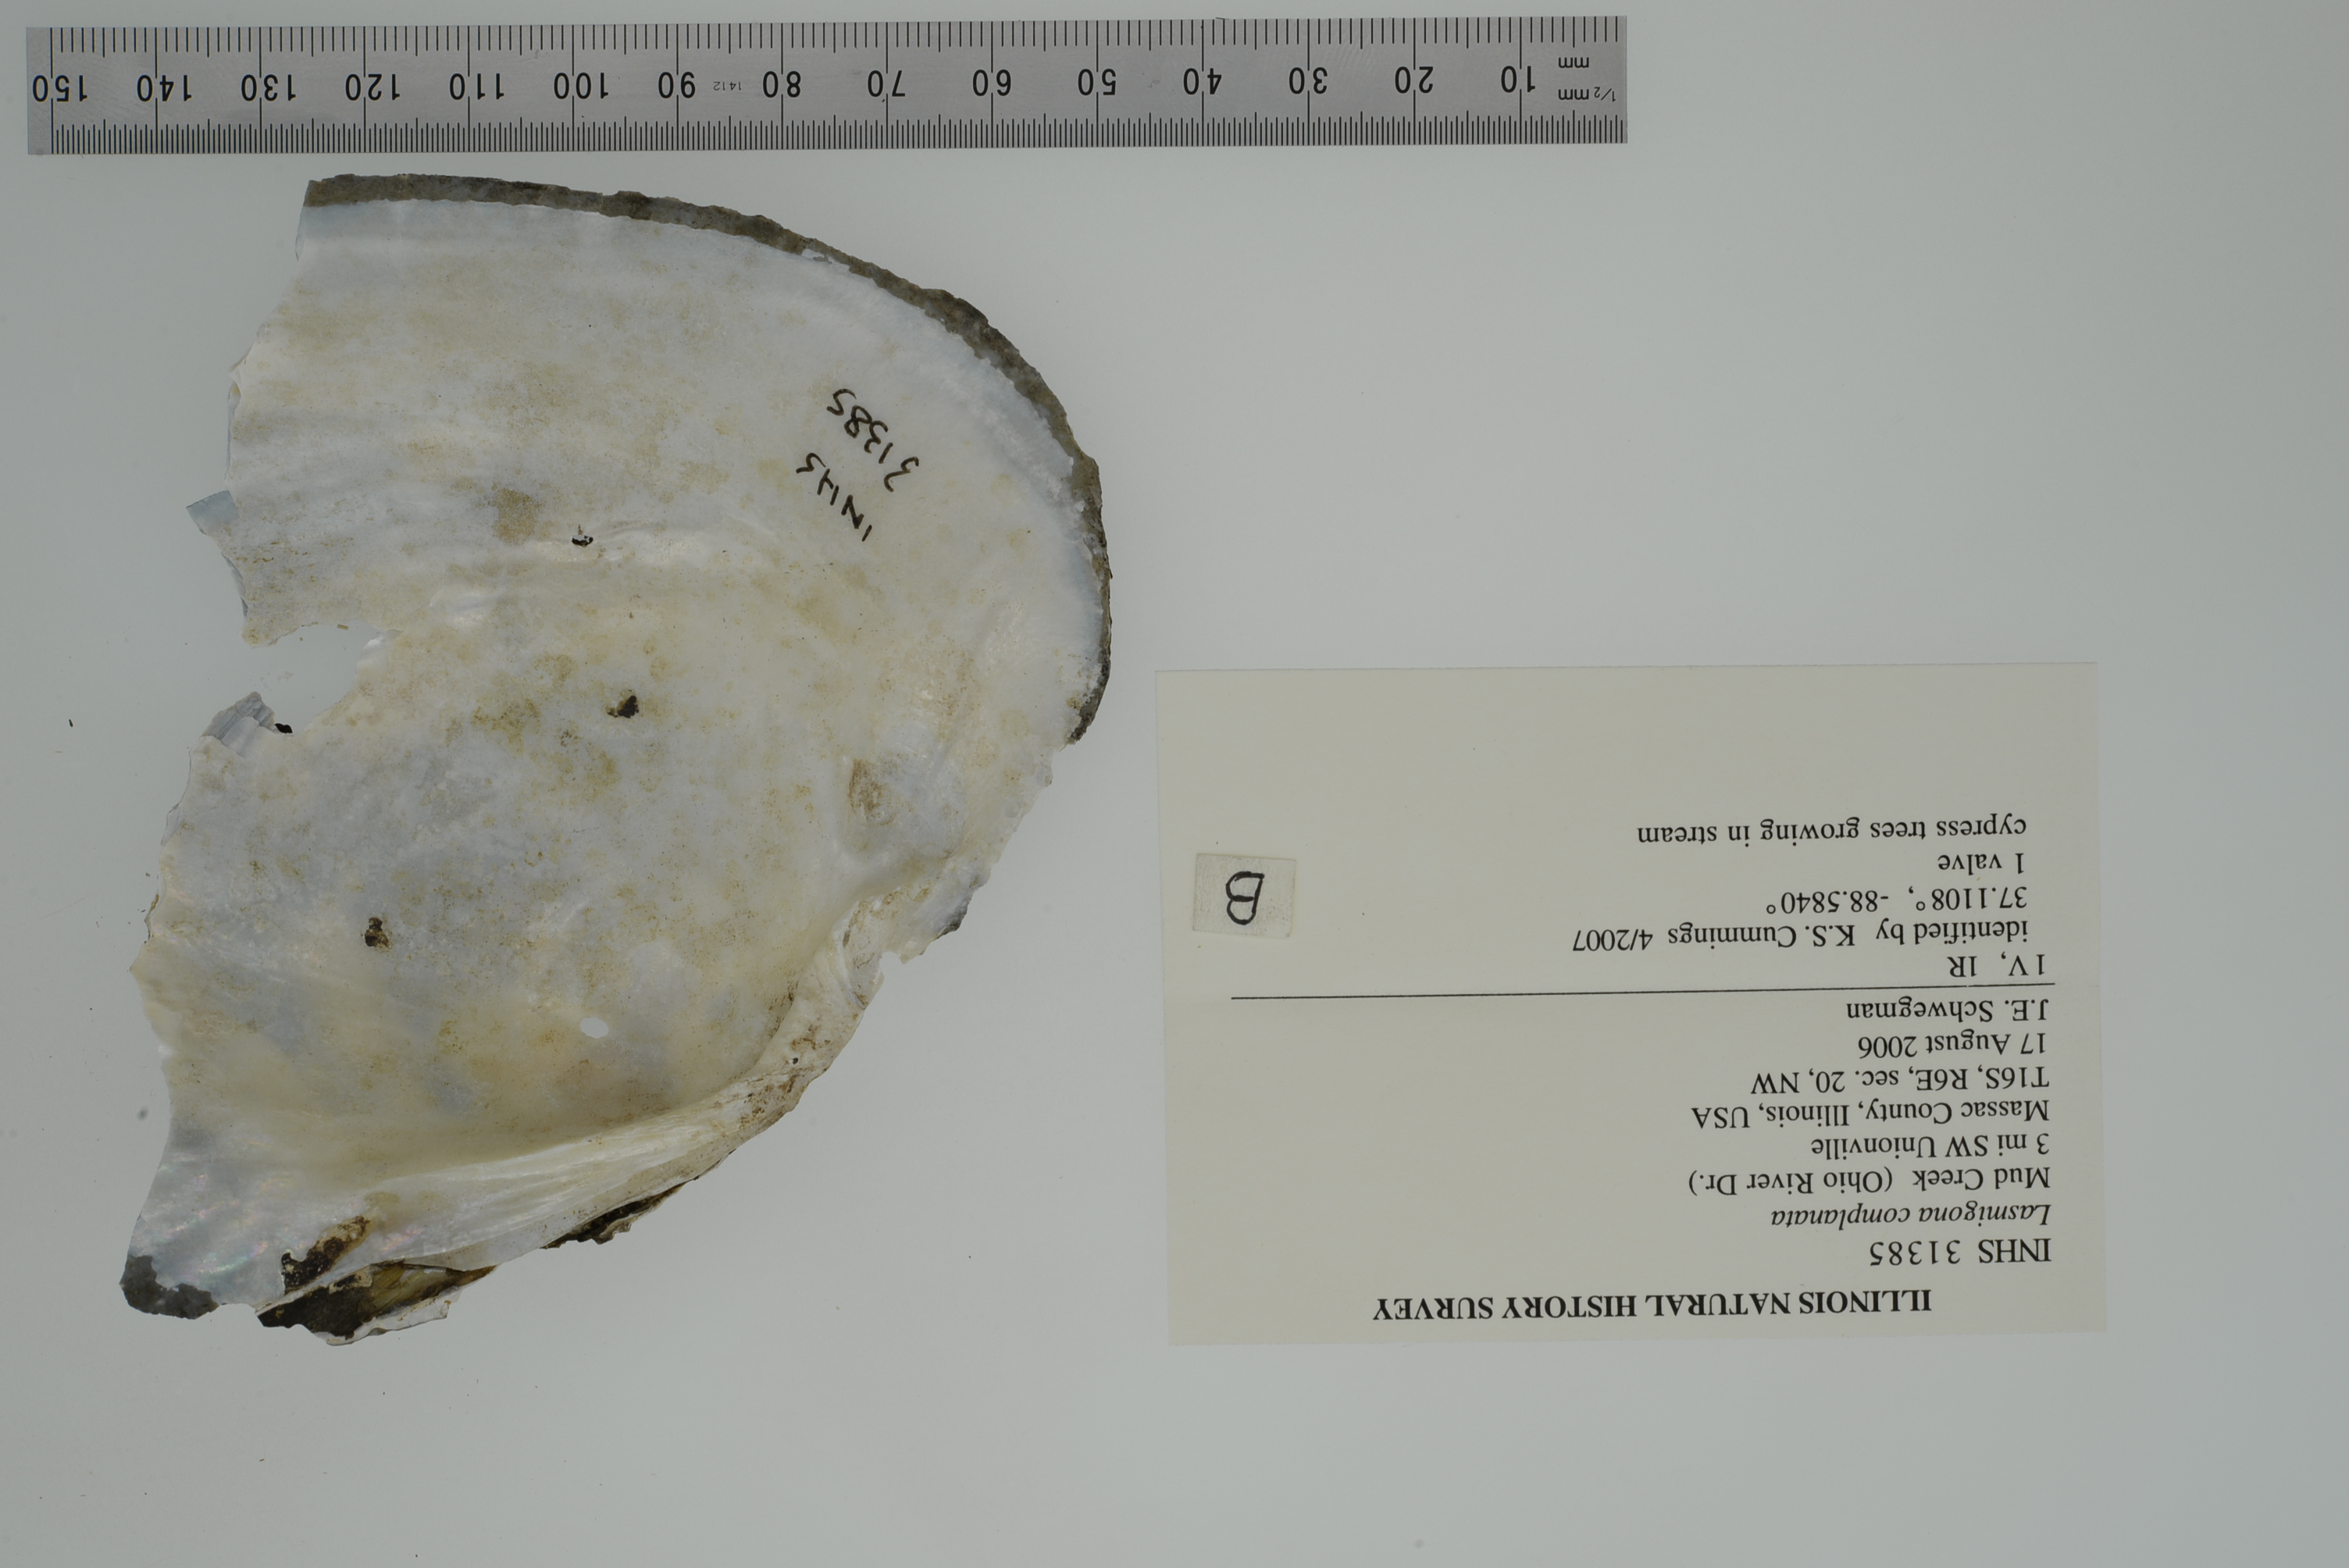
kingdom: Animalia
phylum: Mollusca
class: Bivalvia
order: Unionida
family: Unionidae
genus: Lasmigona
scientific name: Lasmigona complanata
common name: White heelsplitter
